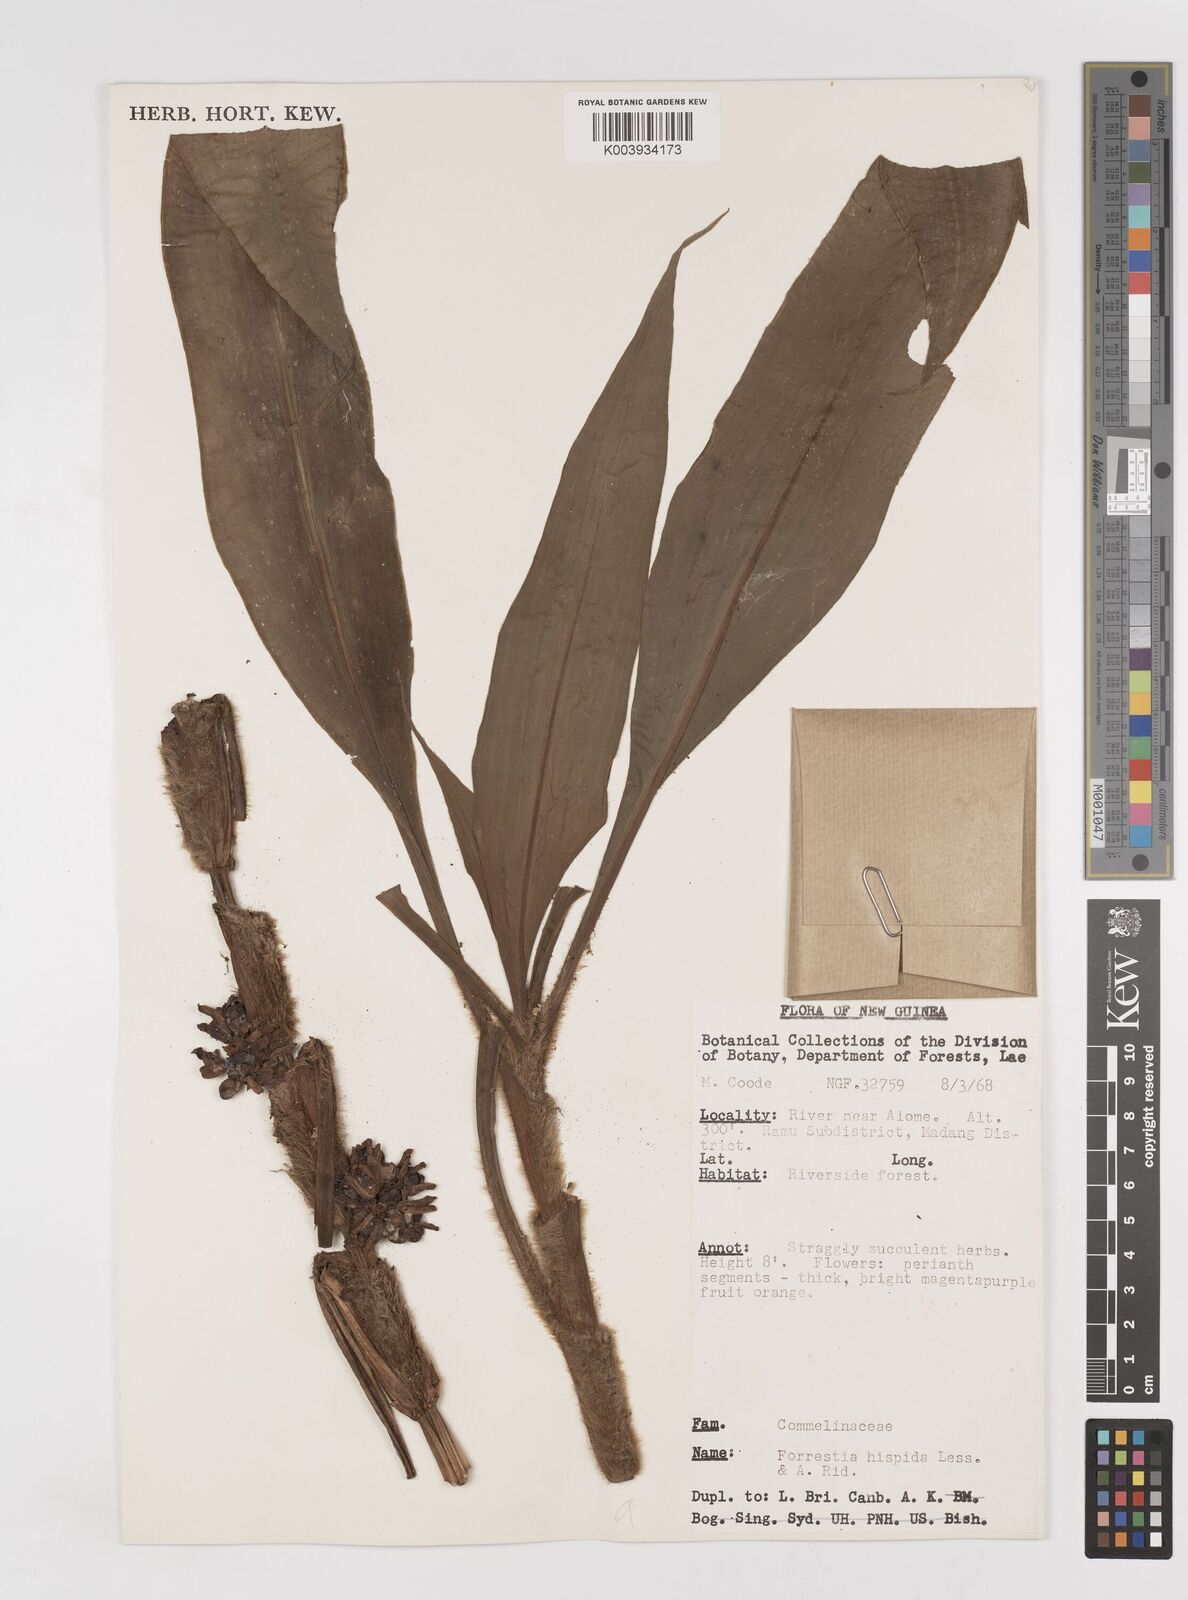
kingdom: Plantae
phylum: Tracheophyta
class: Liliopsida
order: Commelinales
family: Commelinaceae
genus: Amischotolype
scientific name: Amischotolype hispida
